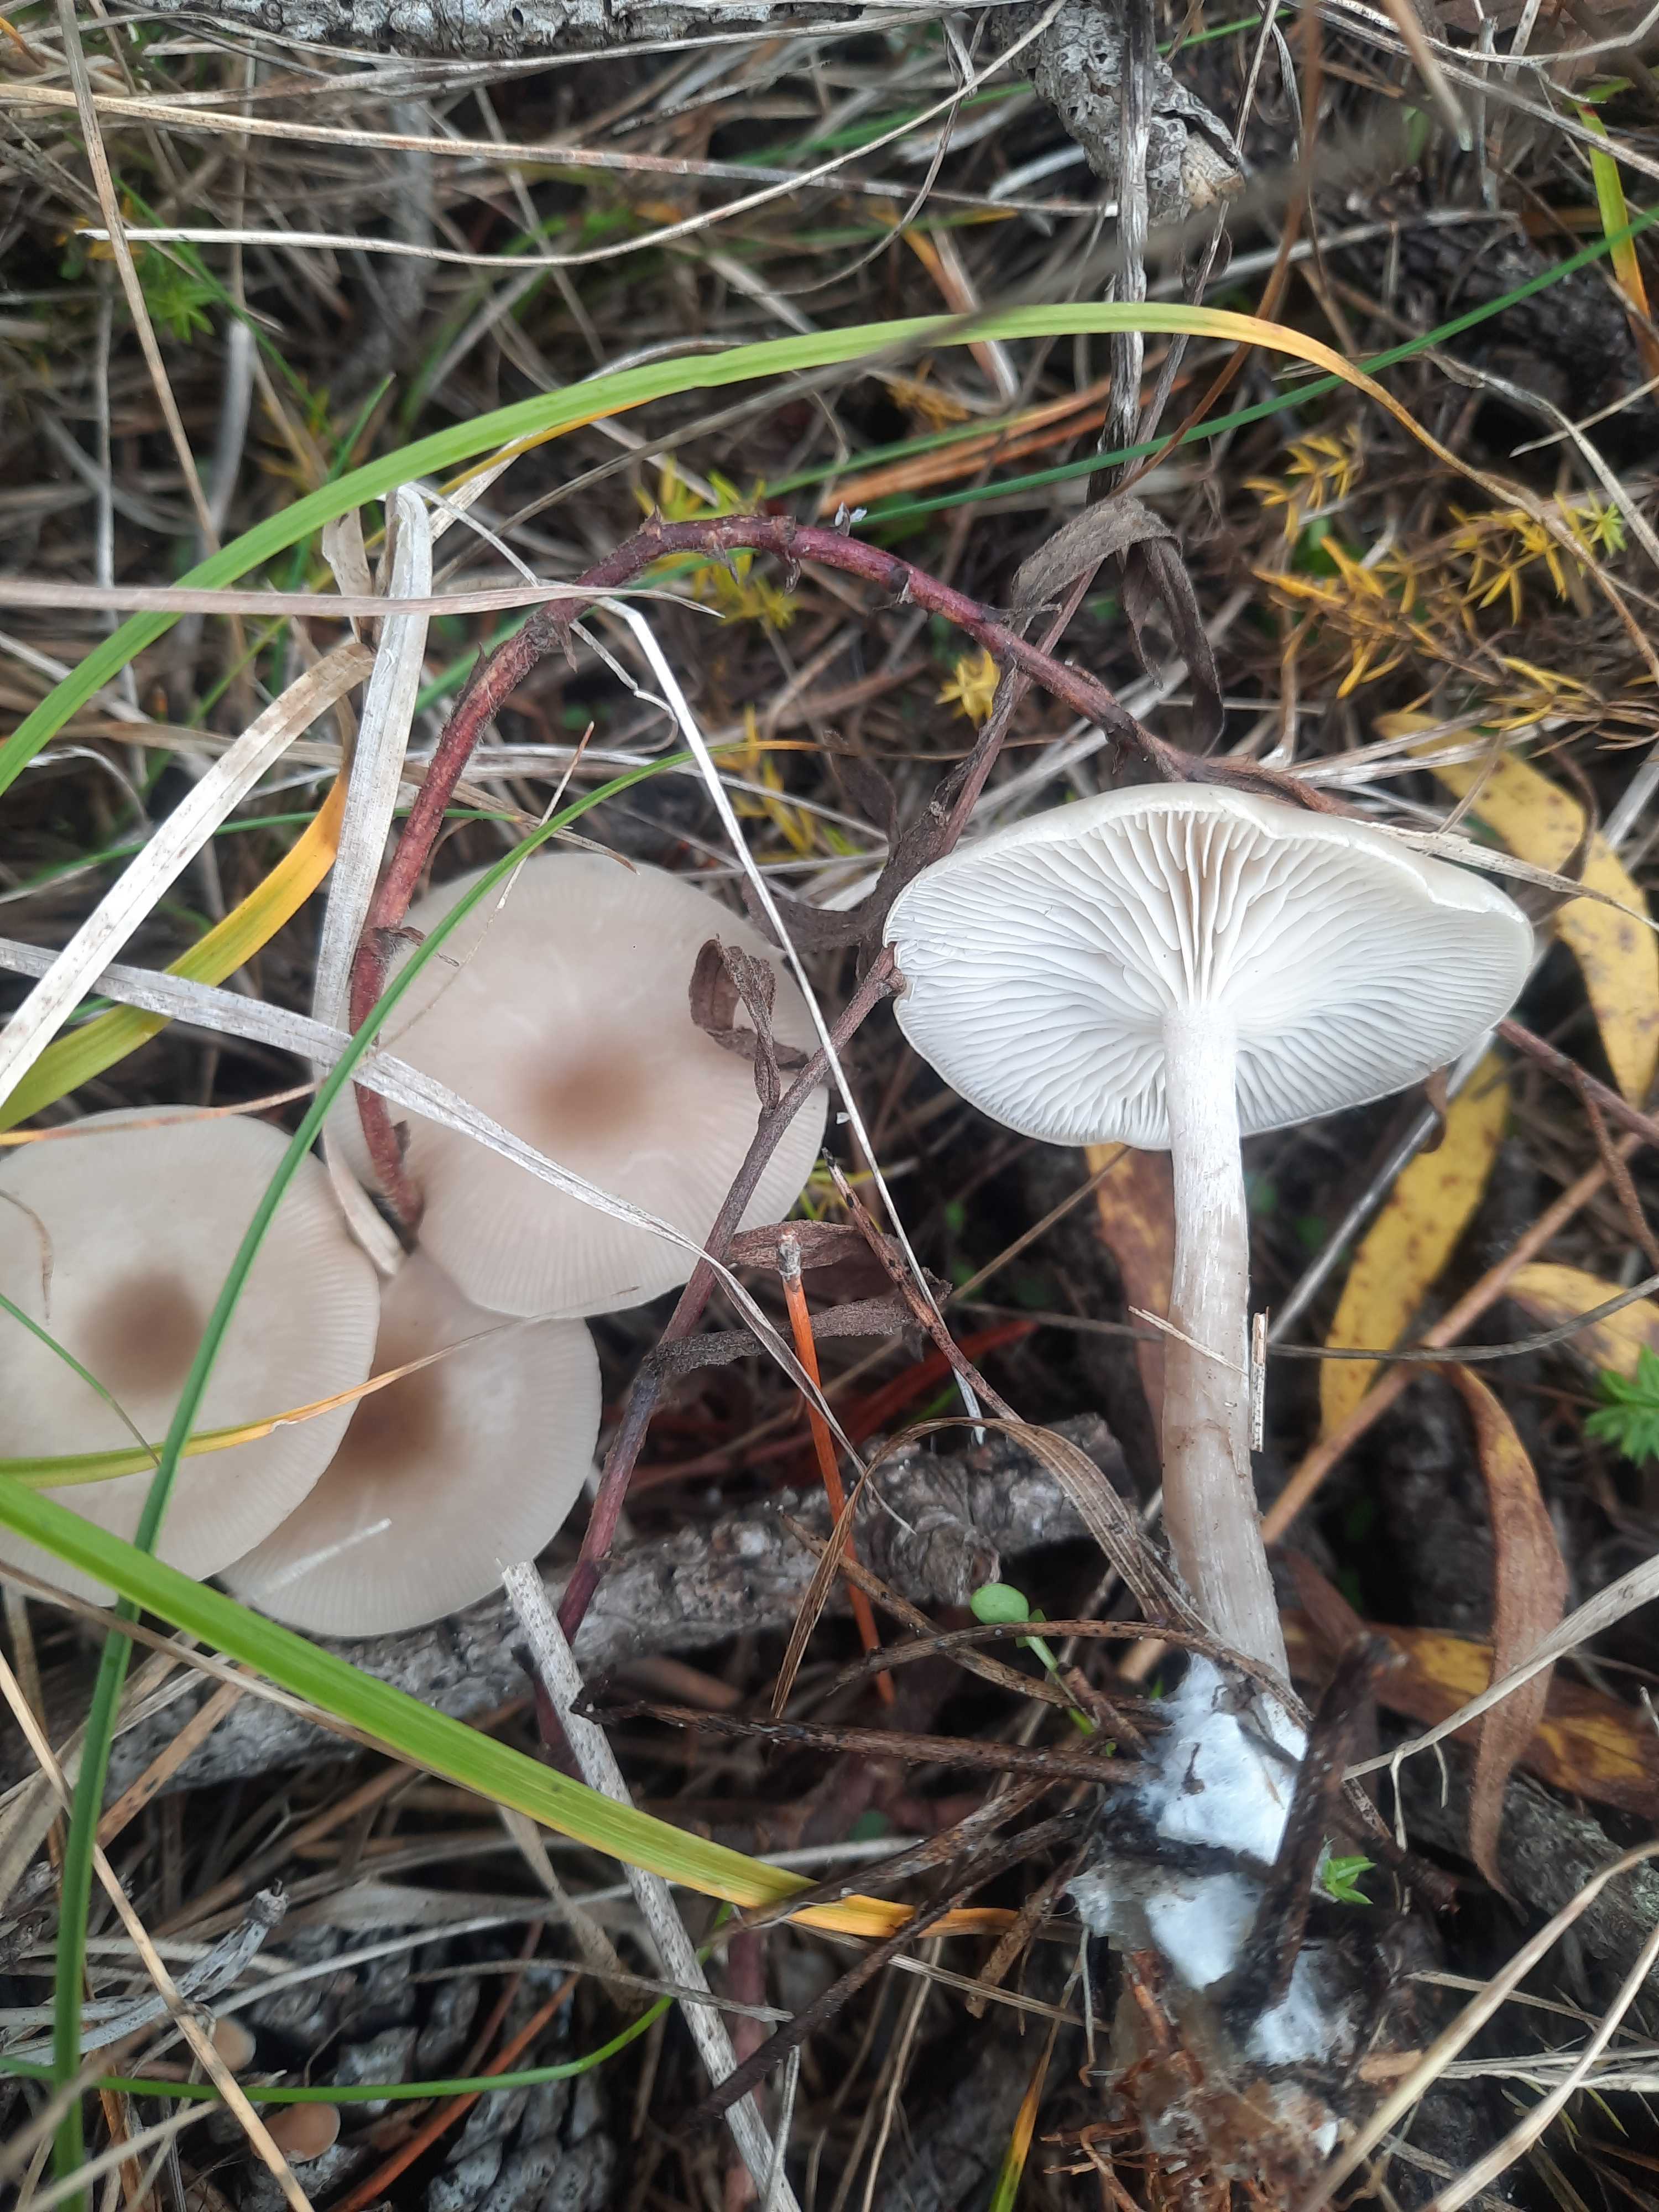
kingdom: Fungi
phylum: Basidiomycota
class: Agaricomycetes
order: Agaricales
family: Tricholomataceae
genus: Clitocybe
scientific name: Clitocybe metachroa
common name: grå tragthat
